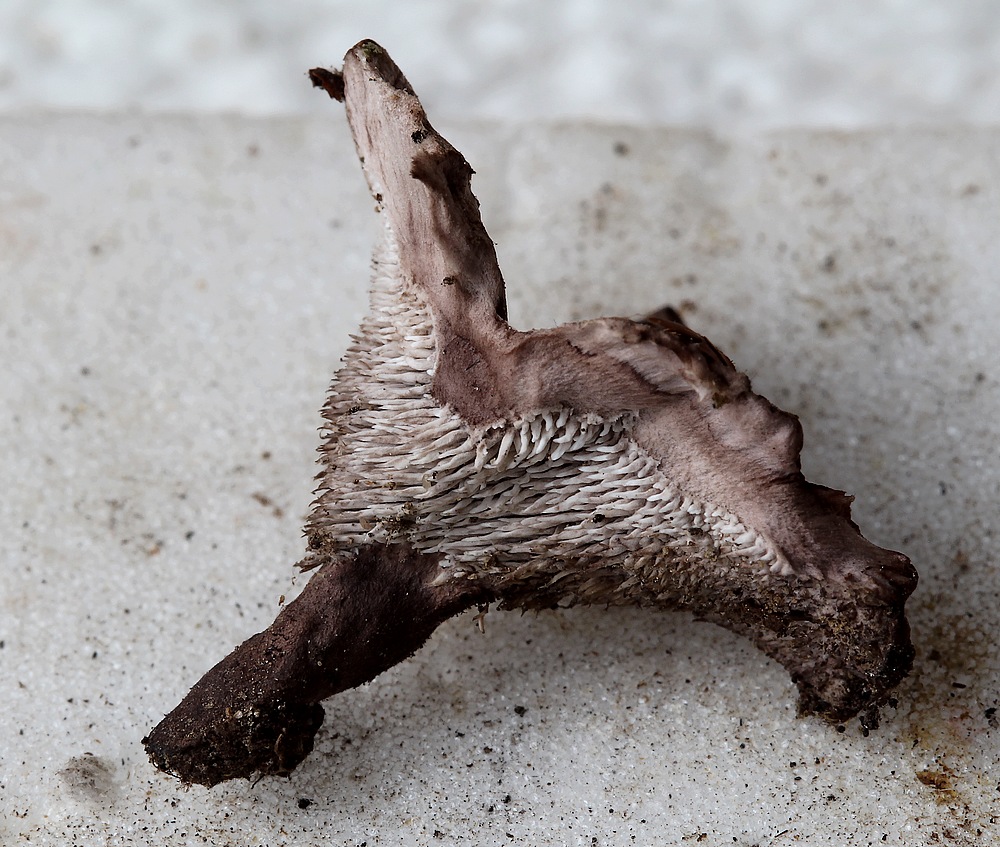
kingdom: Fungi
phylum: Basidiomycota
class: Agaricomycetes
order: Thelephorales
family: Thelephoraceae
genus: Phellodon
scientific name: Phellodon tomentosus
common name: vellugtende duftpigsvamp
